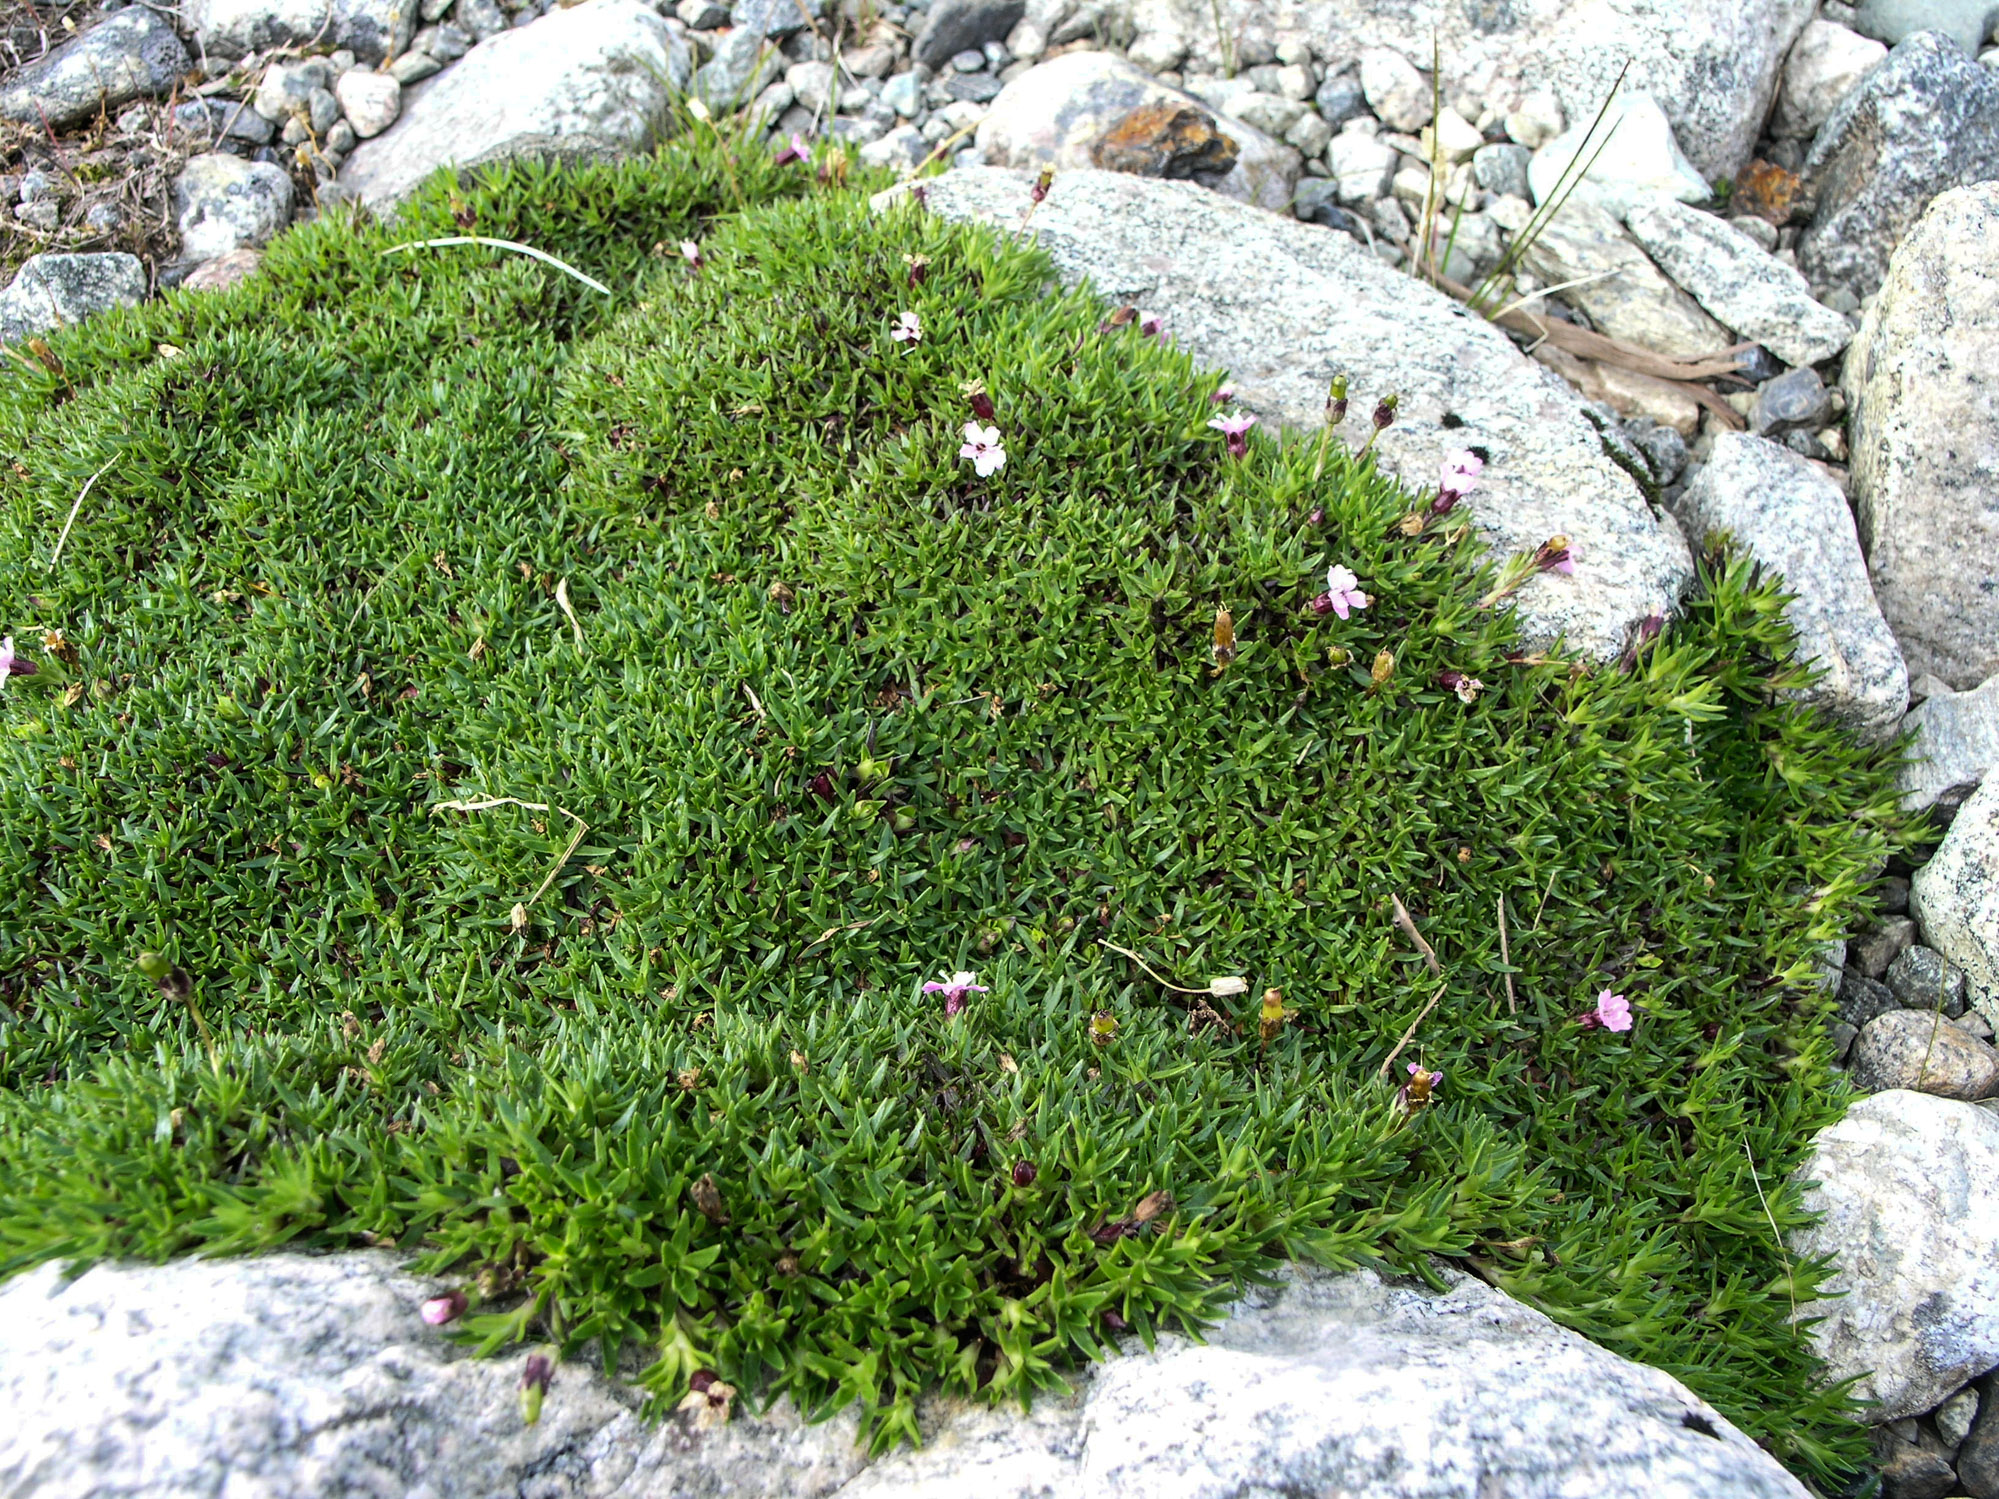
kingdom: Plantae
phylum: Tracheophyta
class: Magnoliopsida
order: Caryophyllales
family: Caryophyllaceae
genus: Silene
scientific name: Silene acaulis
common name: Moss campion
